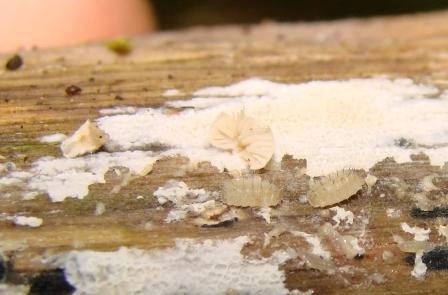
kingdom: Fungi
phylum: Basidiomycota
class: Agaricomycetes
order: Agaricales
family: Entolomataceae
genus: Clitopilus
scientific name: Clitopilus hobsonii
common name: Miller's oysterling
